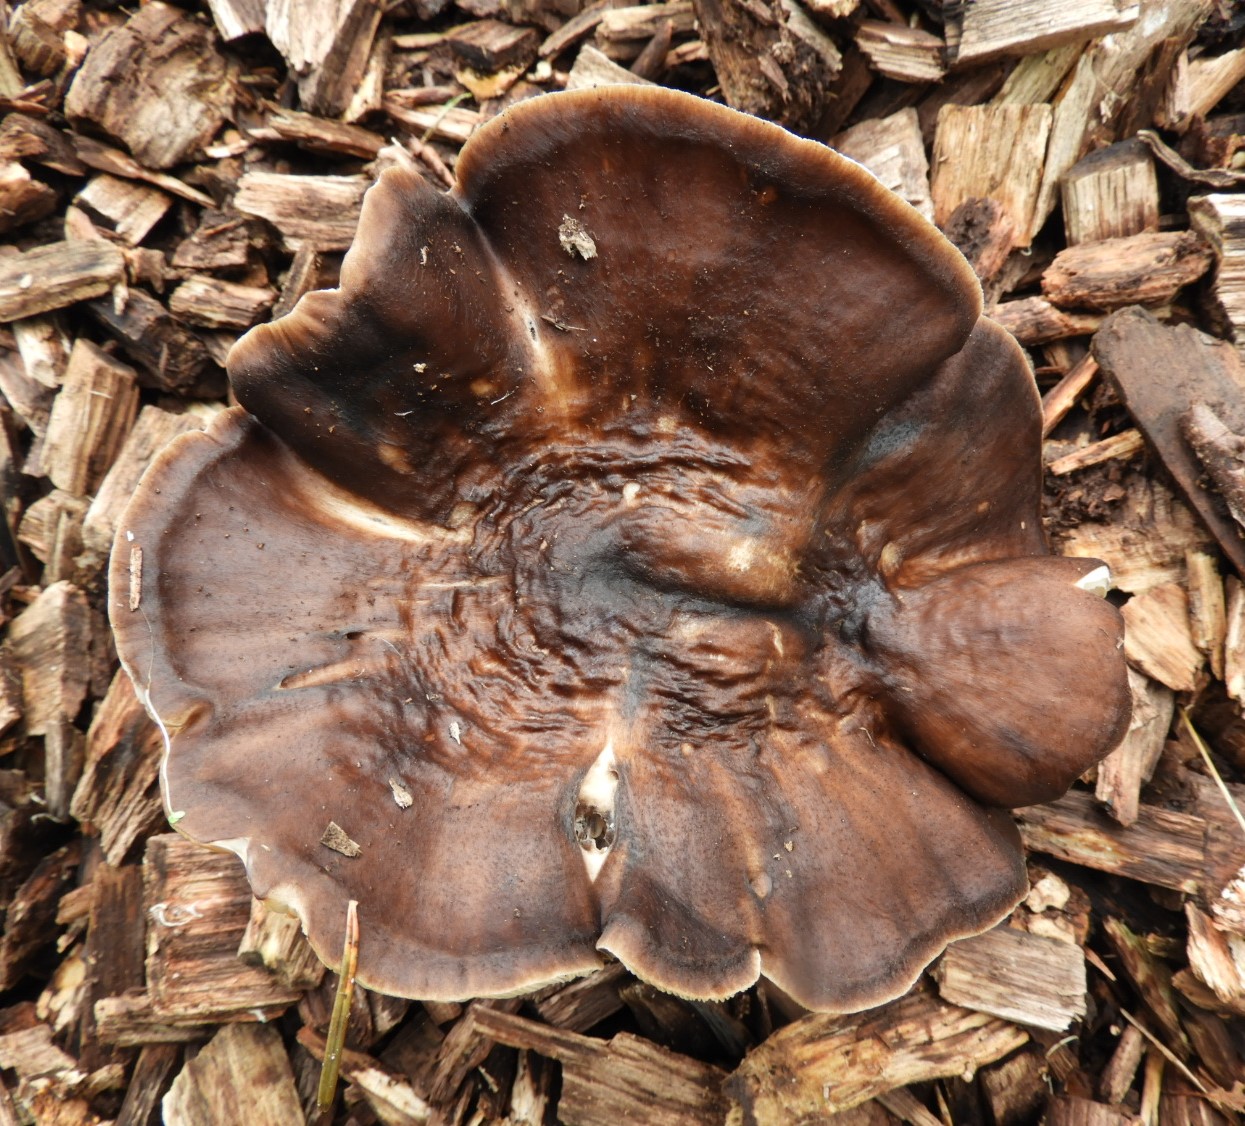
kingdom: Fungi
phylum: Basidiomycota
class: Agaricomycetes
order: Agaricales
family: Pluteaceae
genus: Pluteus
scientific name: Pluteus cervinus
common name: sodfarvet skærmhat
